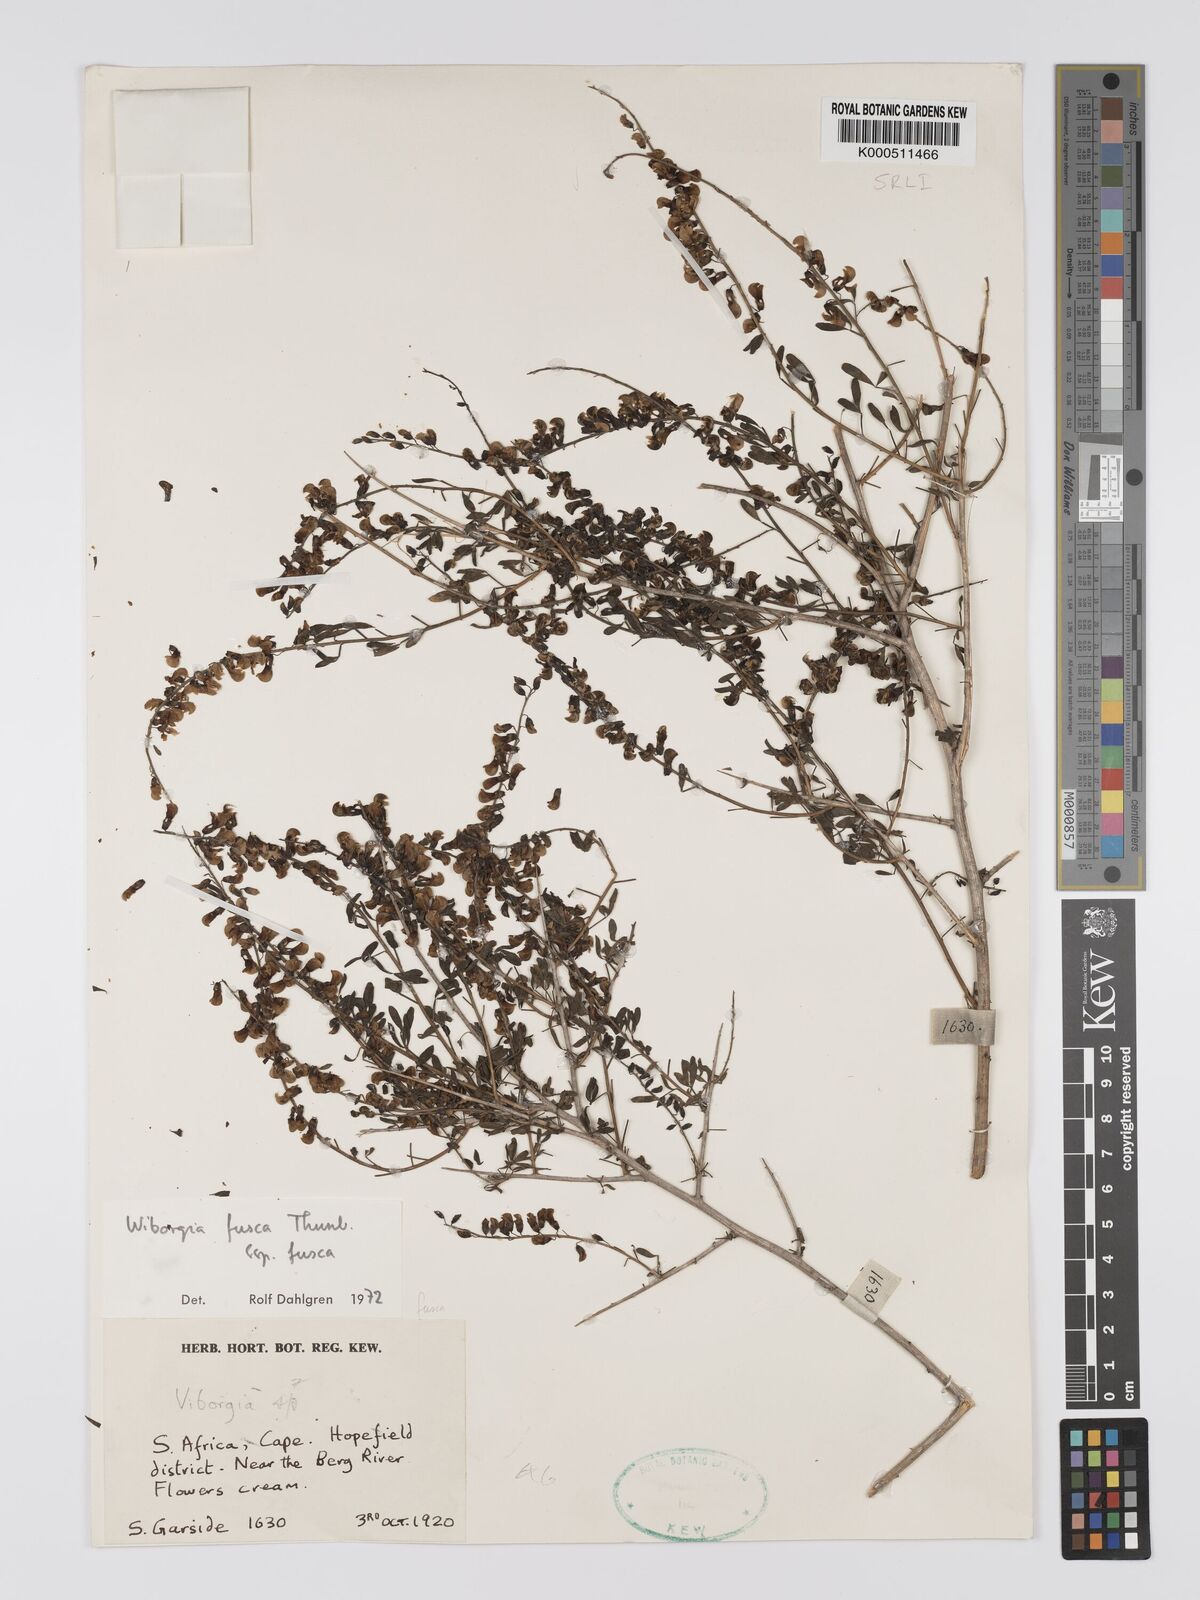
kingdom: Plantae
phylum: Tracheophyta
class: Magnoliopsida
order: Fabales
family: Fabaceae
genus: Wiborgia
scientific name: Wiborgia fusca
